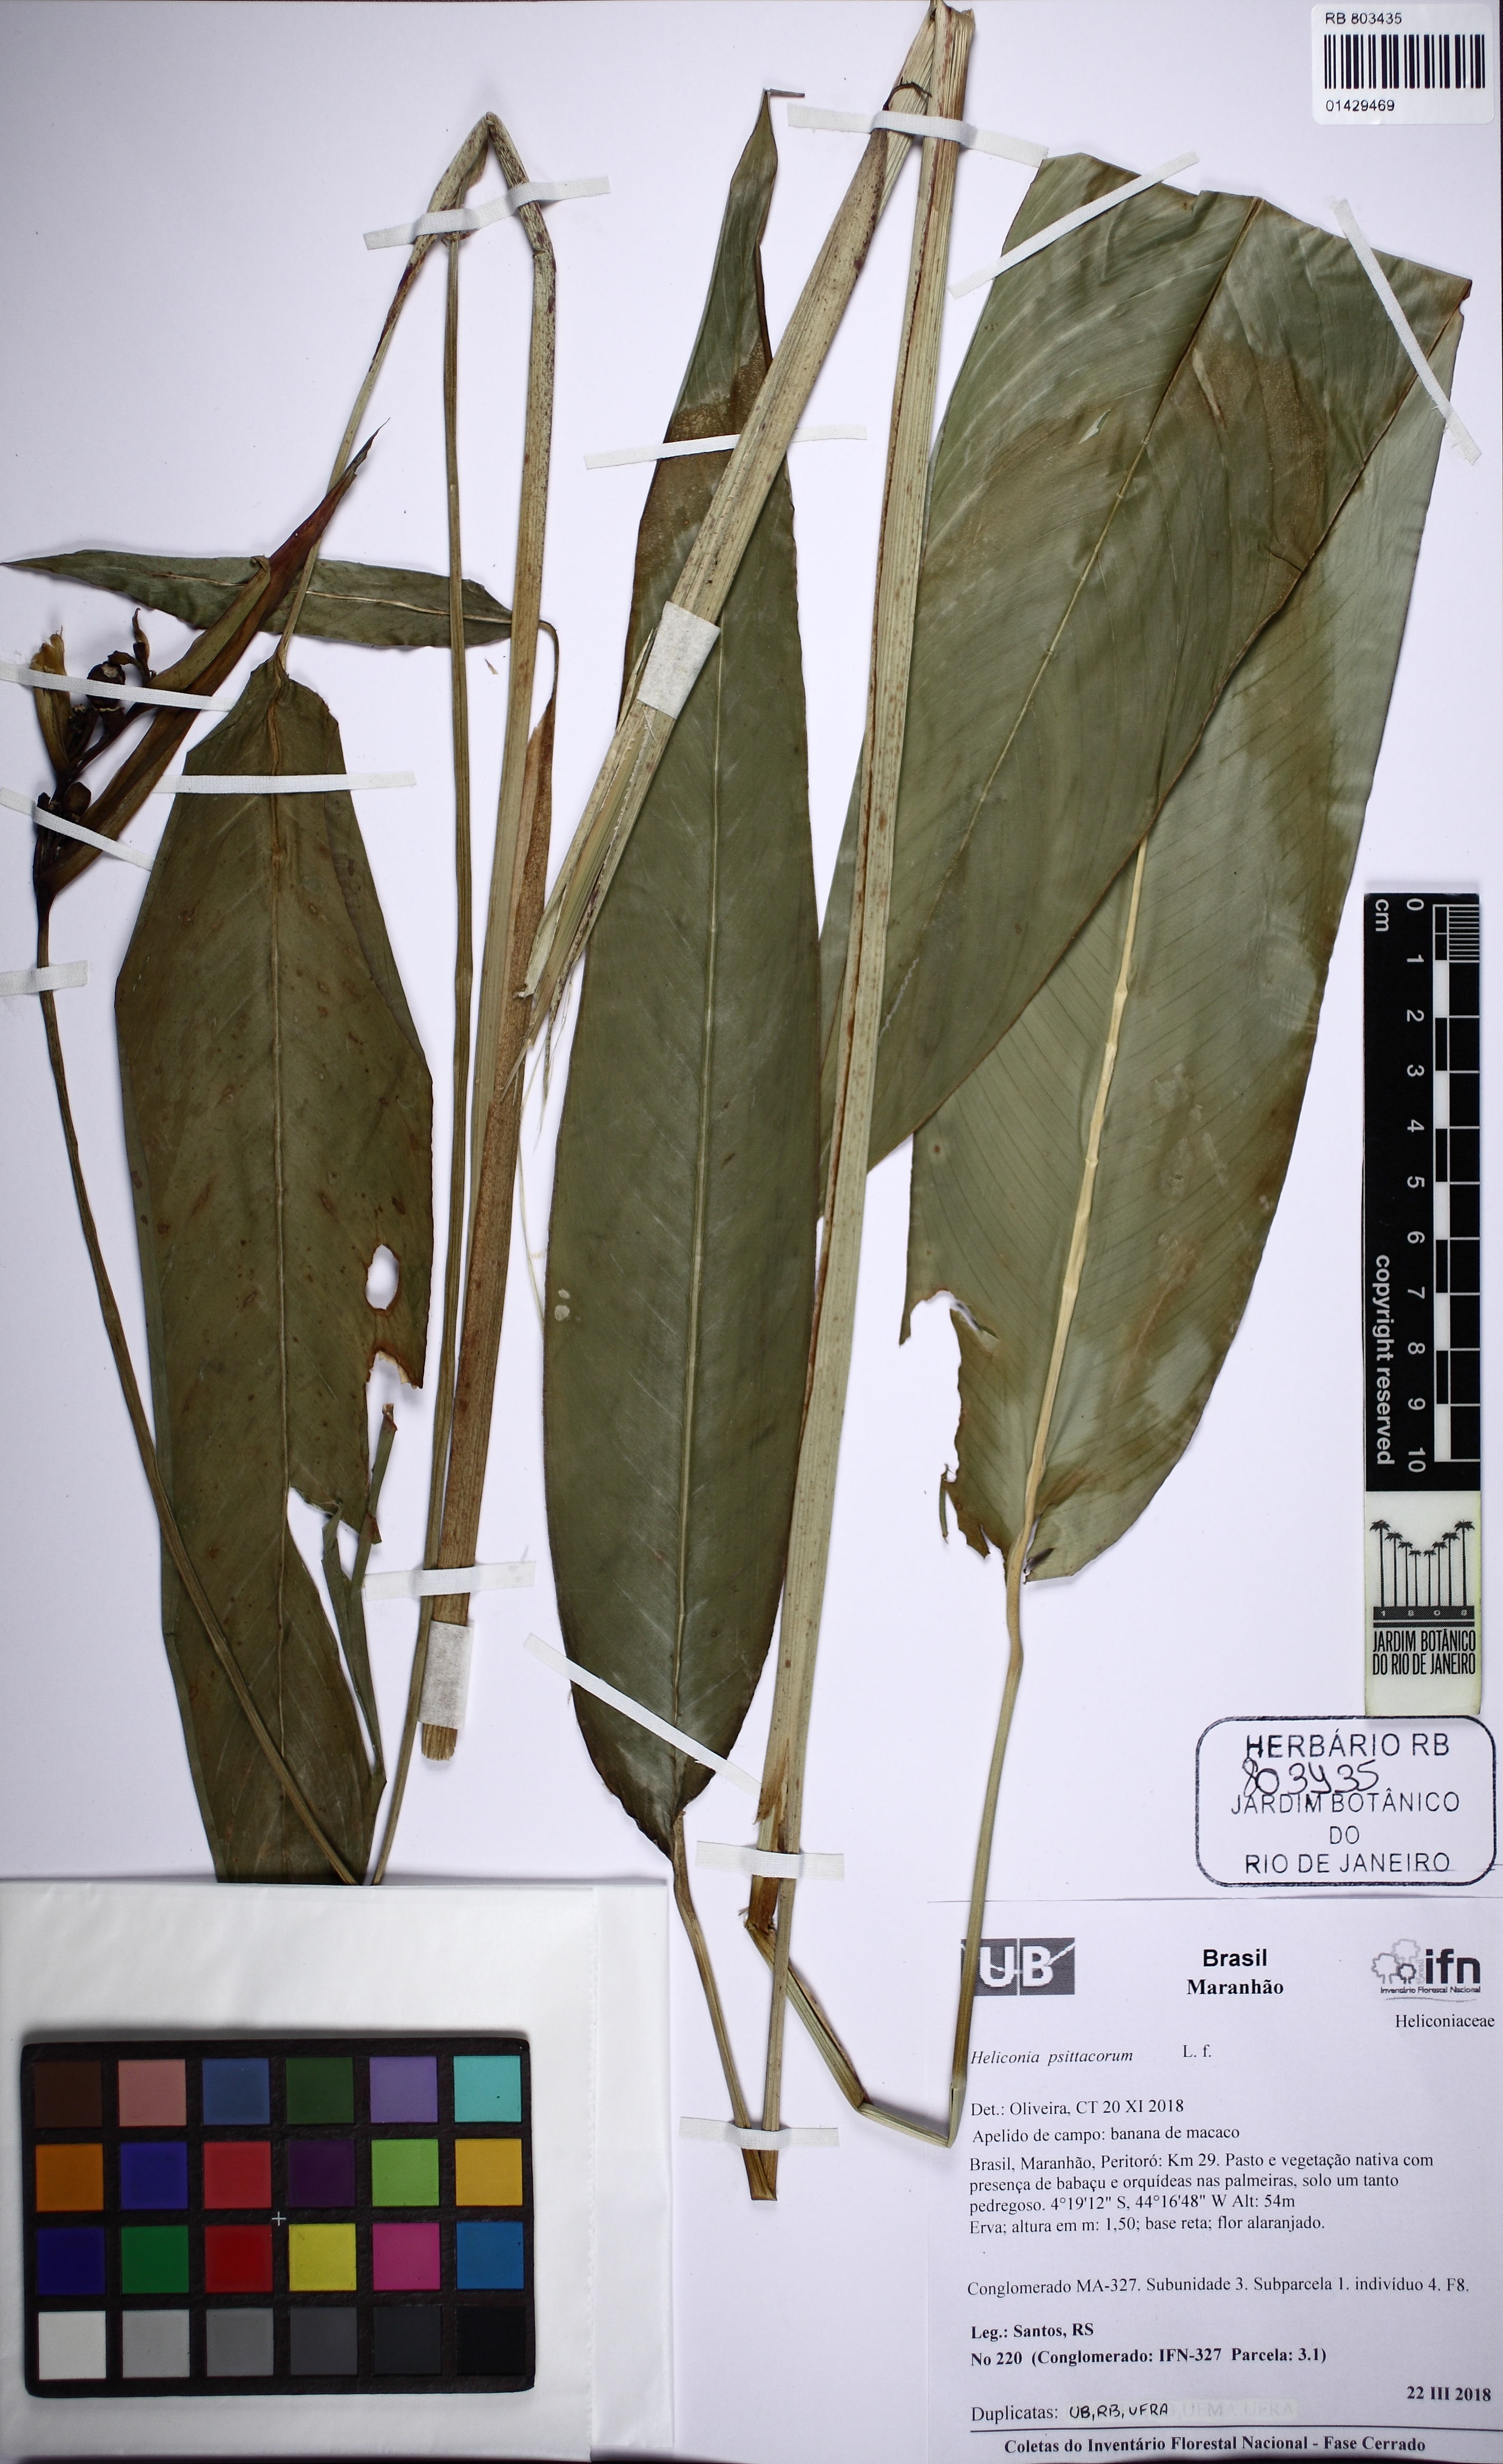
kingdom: Plantae
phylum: Tracheophyta
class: Liliopsida
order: Zingiberales
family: Heliconiaceae
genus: Heliconia
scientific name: Heliconia psittacorum
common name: Parrot's-flower
